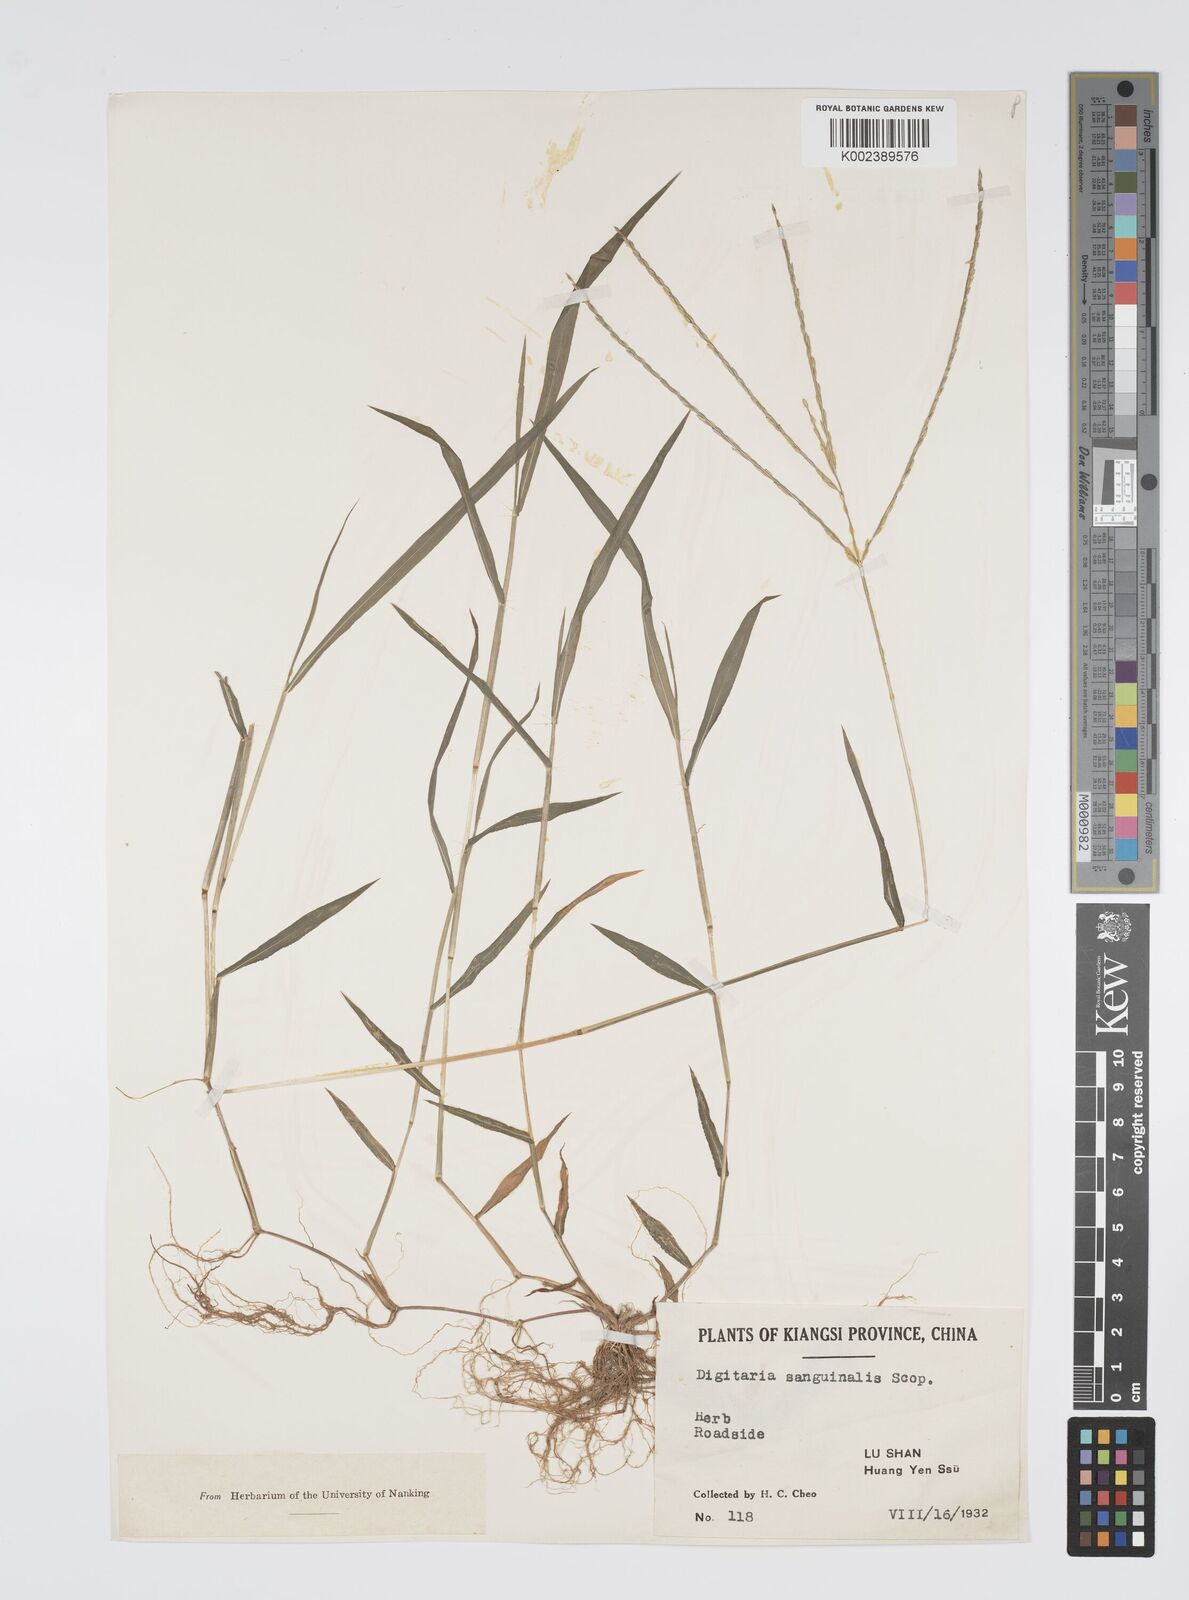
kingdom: Plantae
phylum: Tracheophyta
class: Liliopsida
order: Poales
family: Poaceae
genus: Digitaria
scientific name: Digitaria ciliaris
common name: Tropical finger-grass
